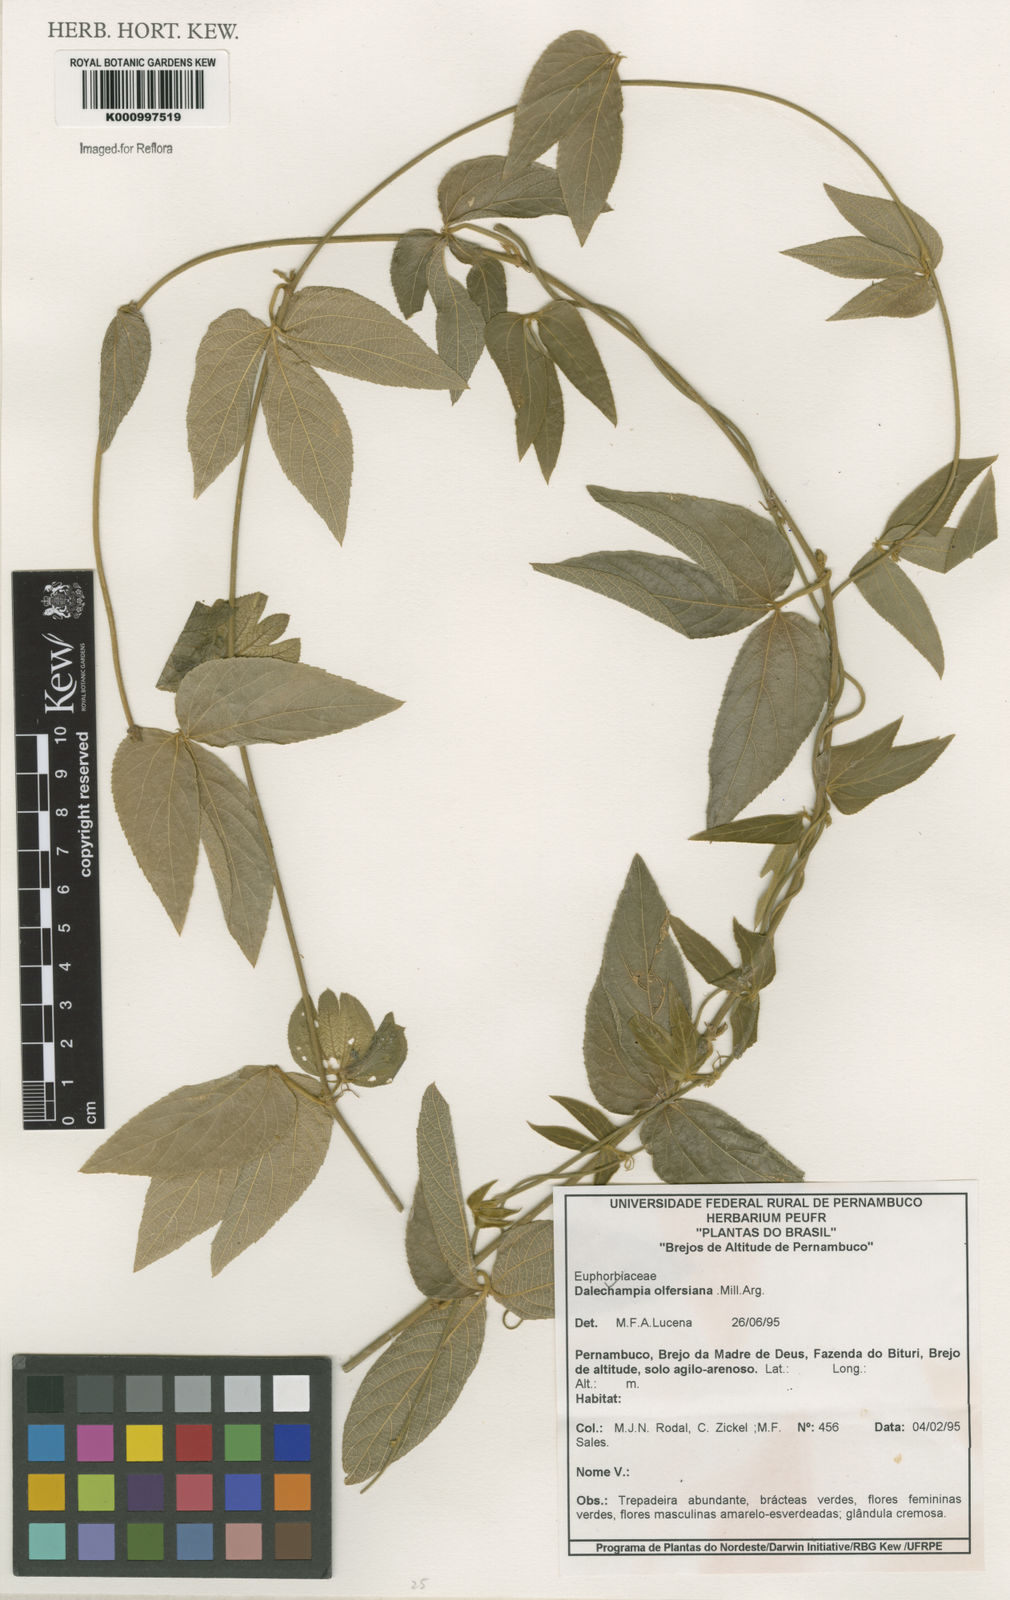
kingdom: Plantae
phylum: Tracheophyta
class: Magnoliopsida
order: Malpighiales
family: Euphorbiaceae
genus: Dalechampia
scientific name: Dalechampia
